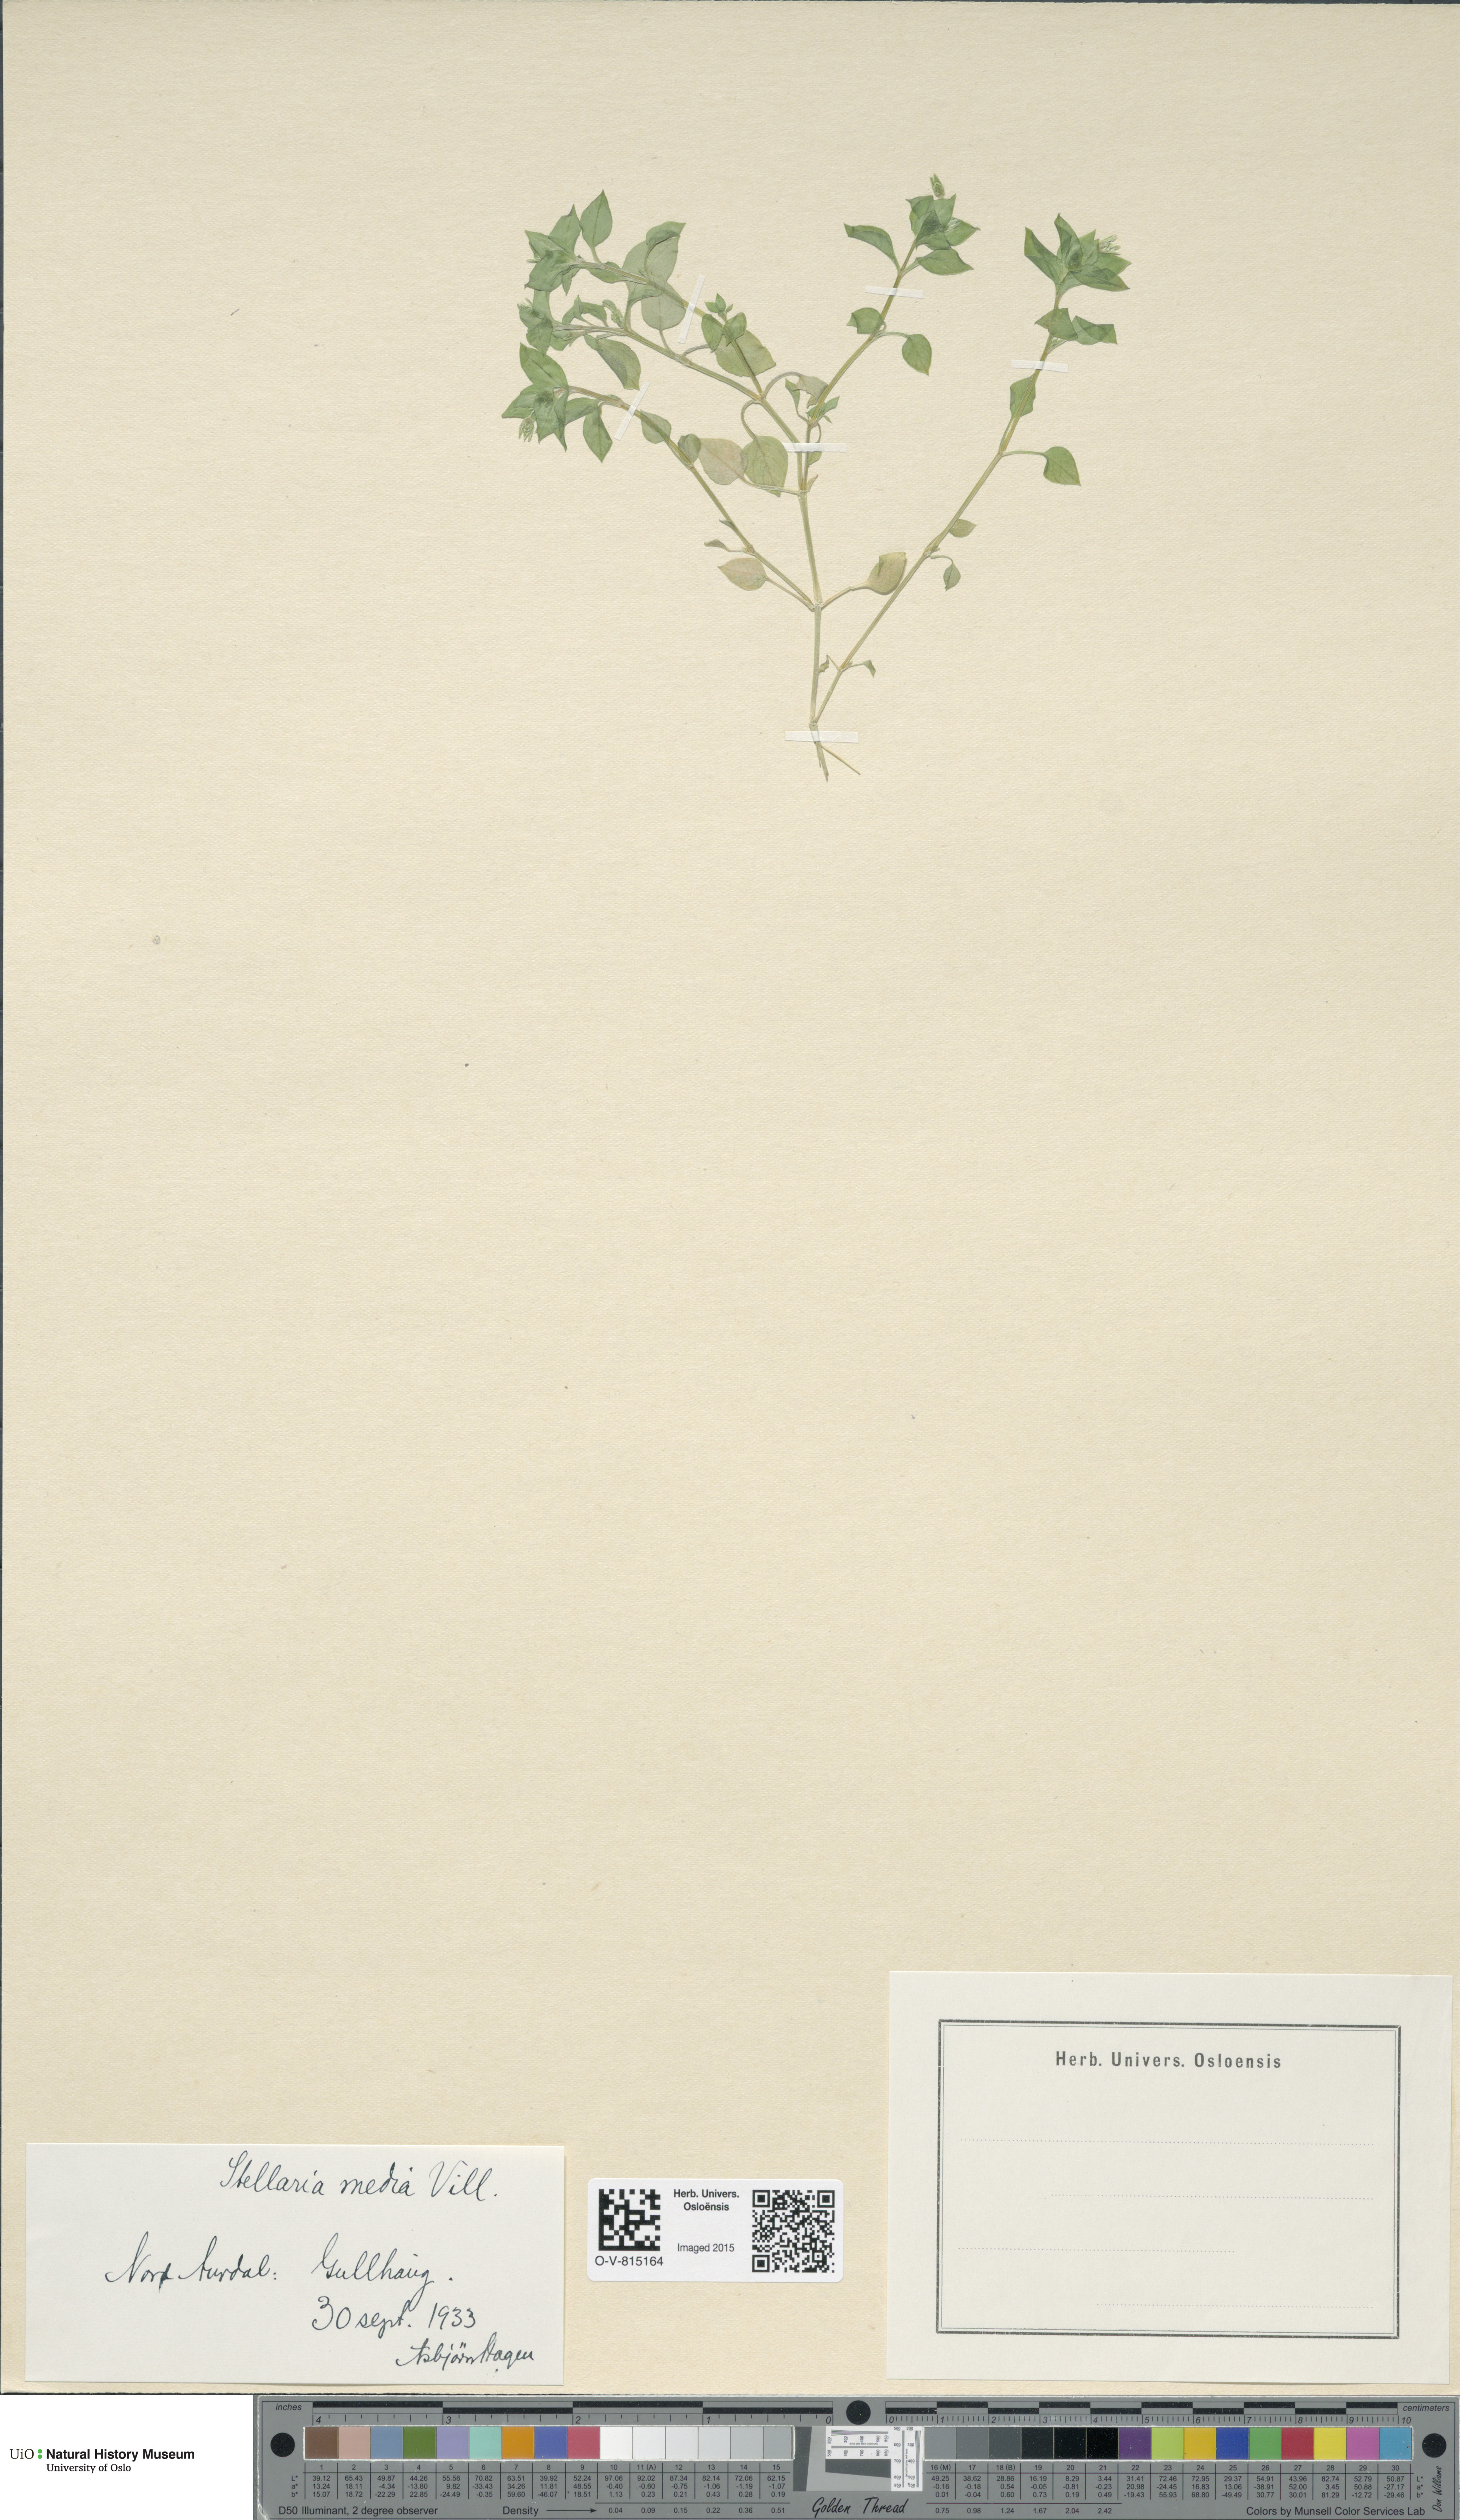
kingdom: Plantae
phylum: Tracheophyta
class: Magnoliopsida
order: Caryophyllales
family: Caryophyllaceae
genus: Stellaria
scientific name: Stellaria media
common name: Common chickweed
